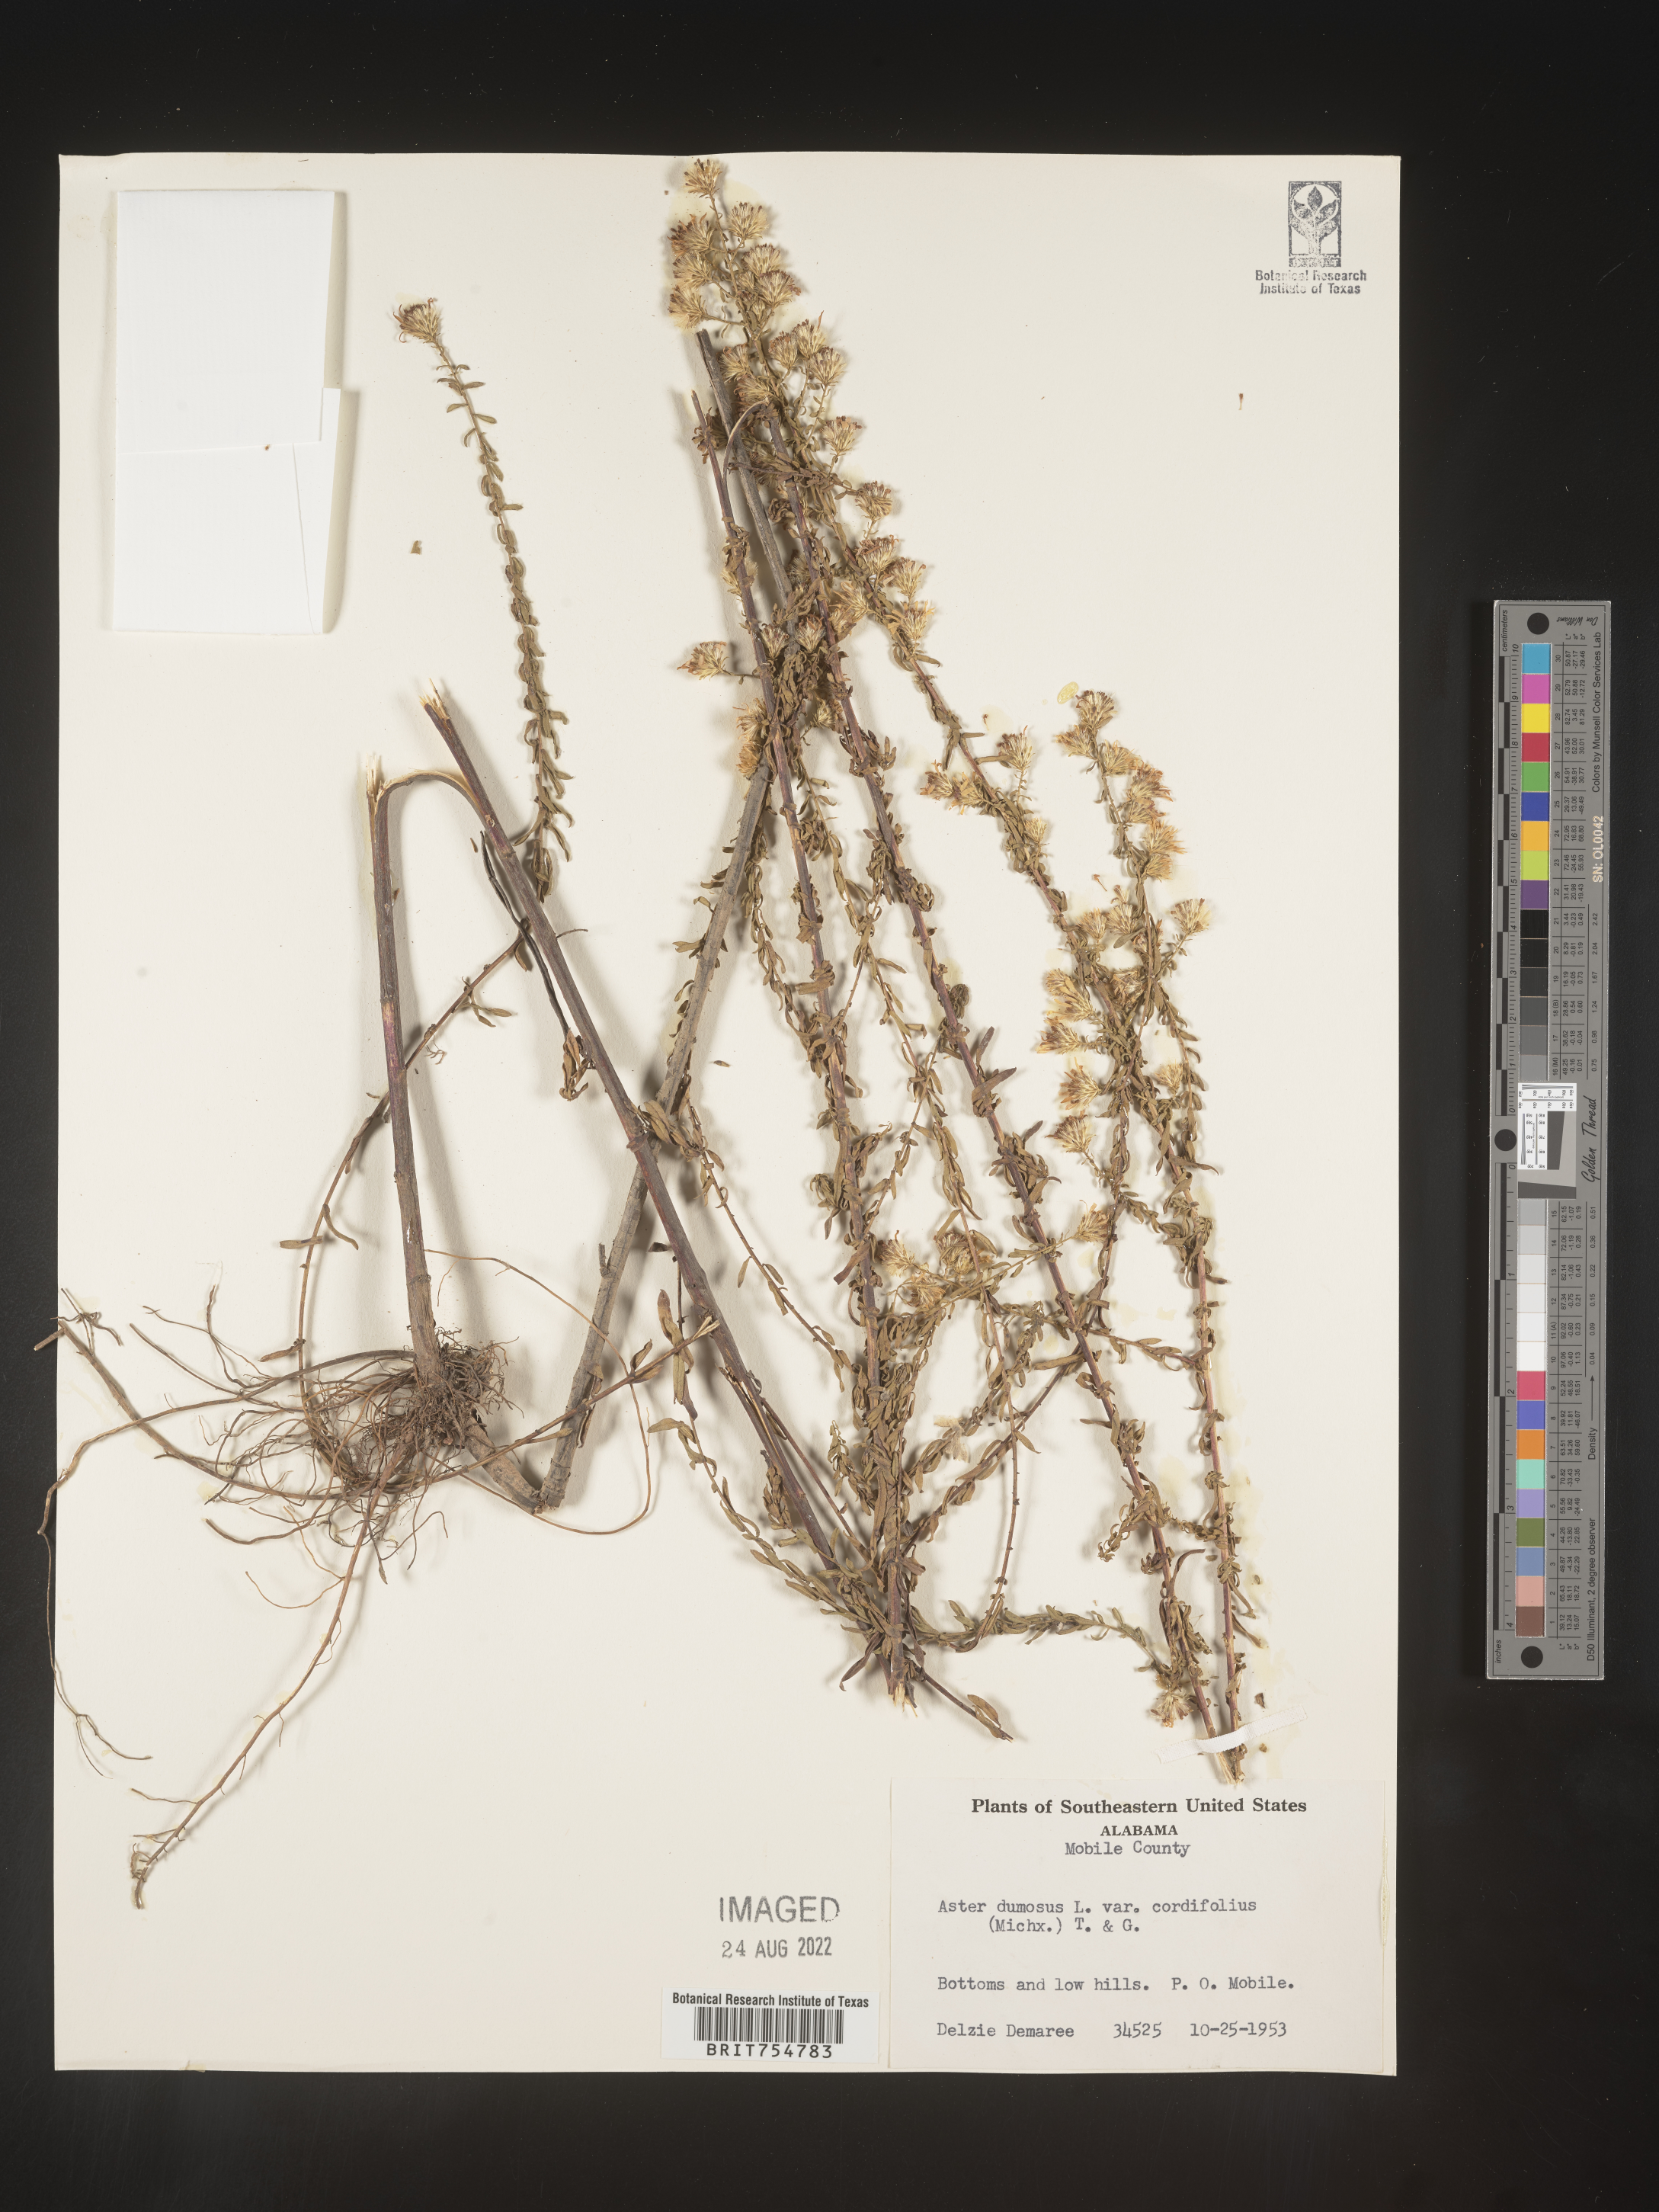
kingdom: Plantae
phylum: Tracheophyta
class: Magnoliopsida
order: Asterales
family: Asteraceae
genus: Symphyotrichum
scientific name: Symphyotrichum
